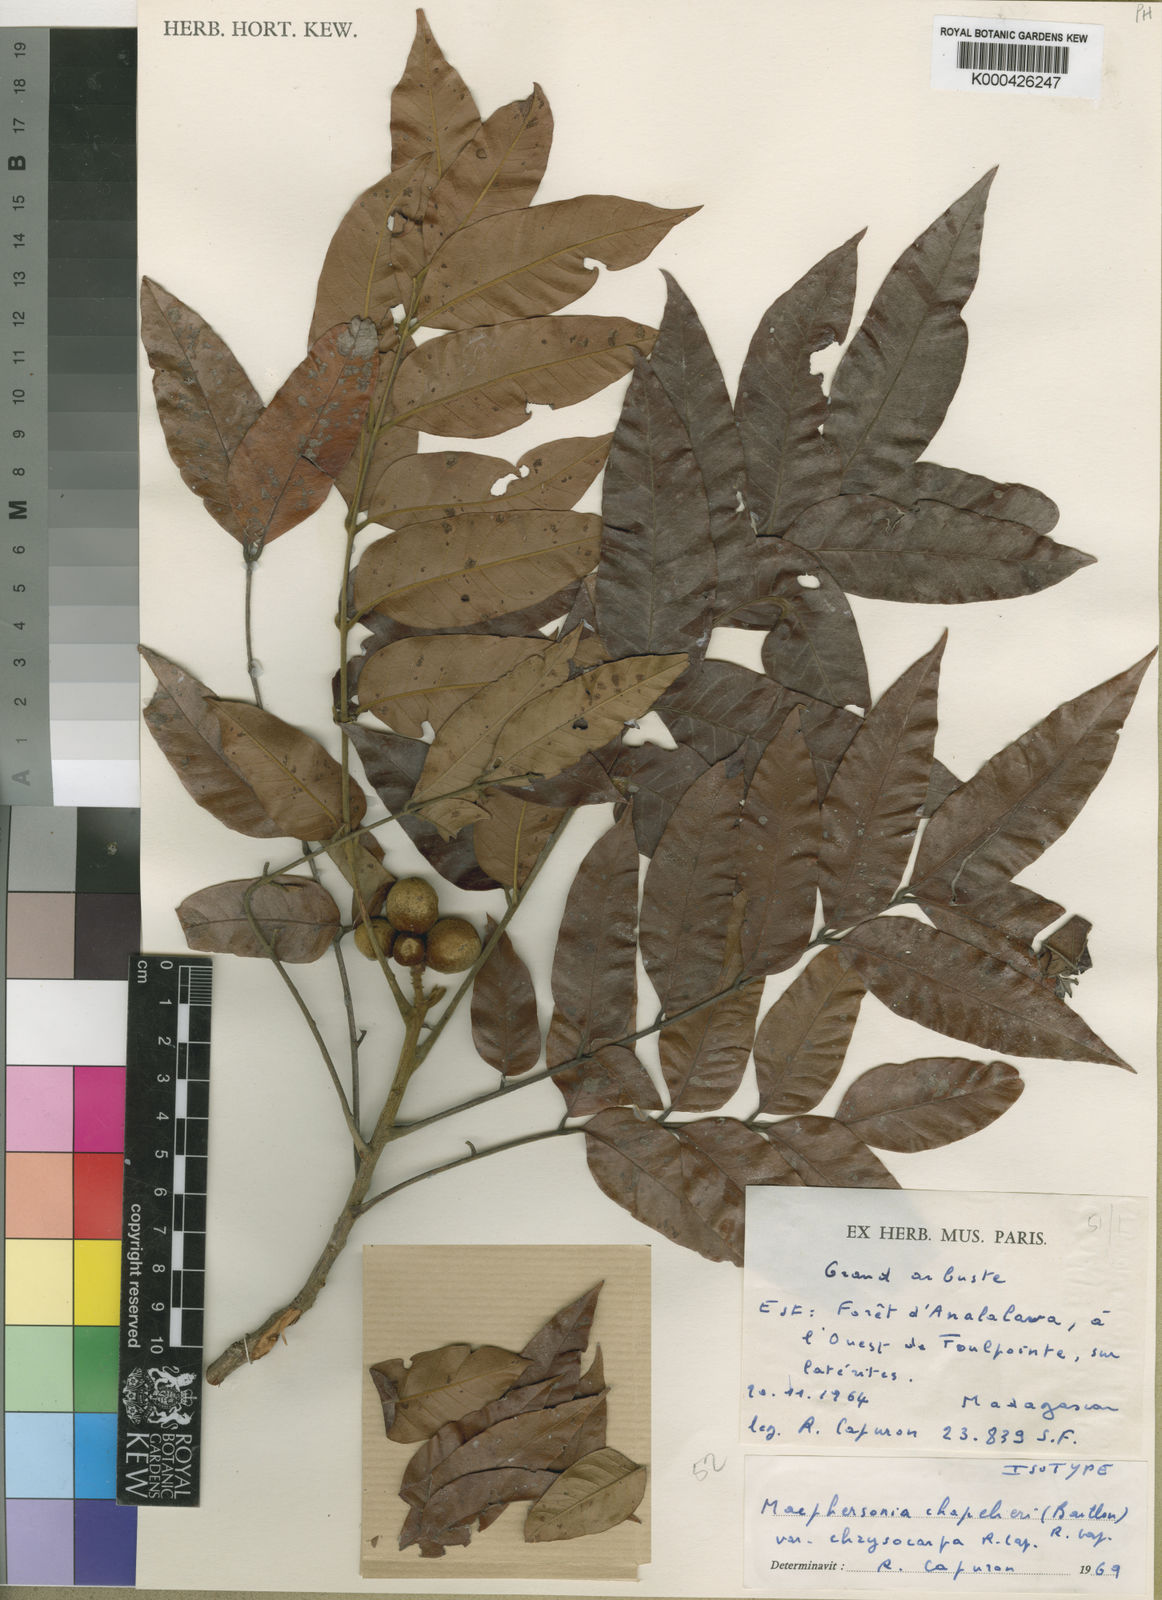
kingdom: Plantae
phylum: Tracheophyta
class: Magnoliopsida
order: Sapindales
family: Sapindaceae
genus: Macphersonia
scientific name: Macphersonia chapelieri
